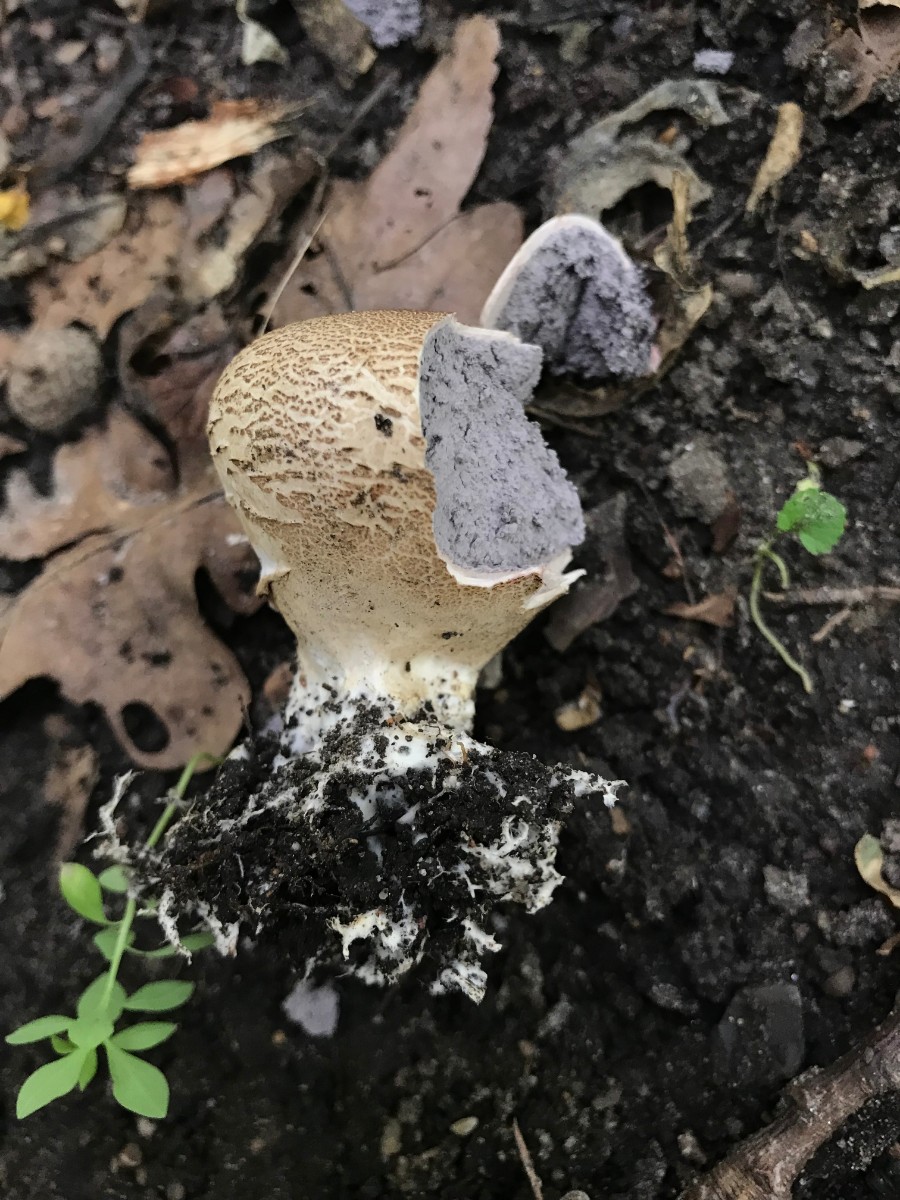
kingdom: Fungi
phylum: Basidiomycota
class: Agaricomycetes
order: Boletales
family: Sclerodermataceae
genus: Scleroderma
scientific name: Scleroderma verrucosum
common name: stilket bruskbold
